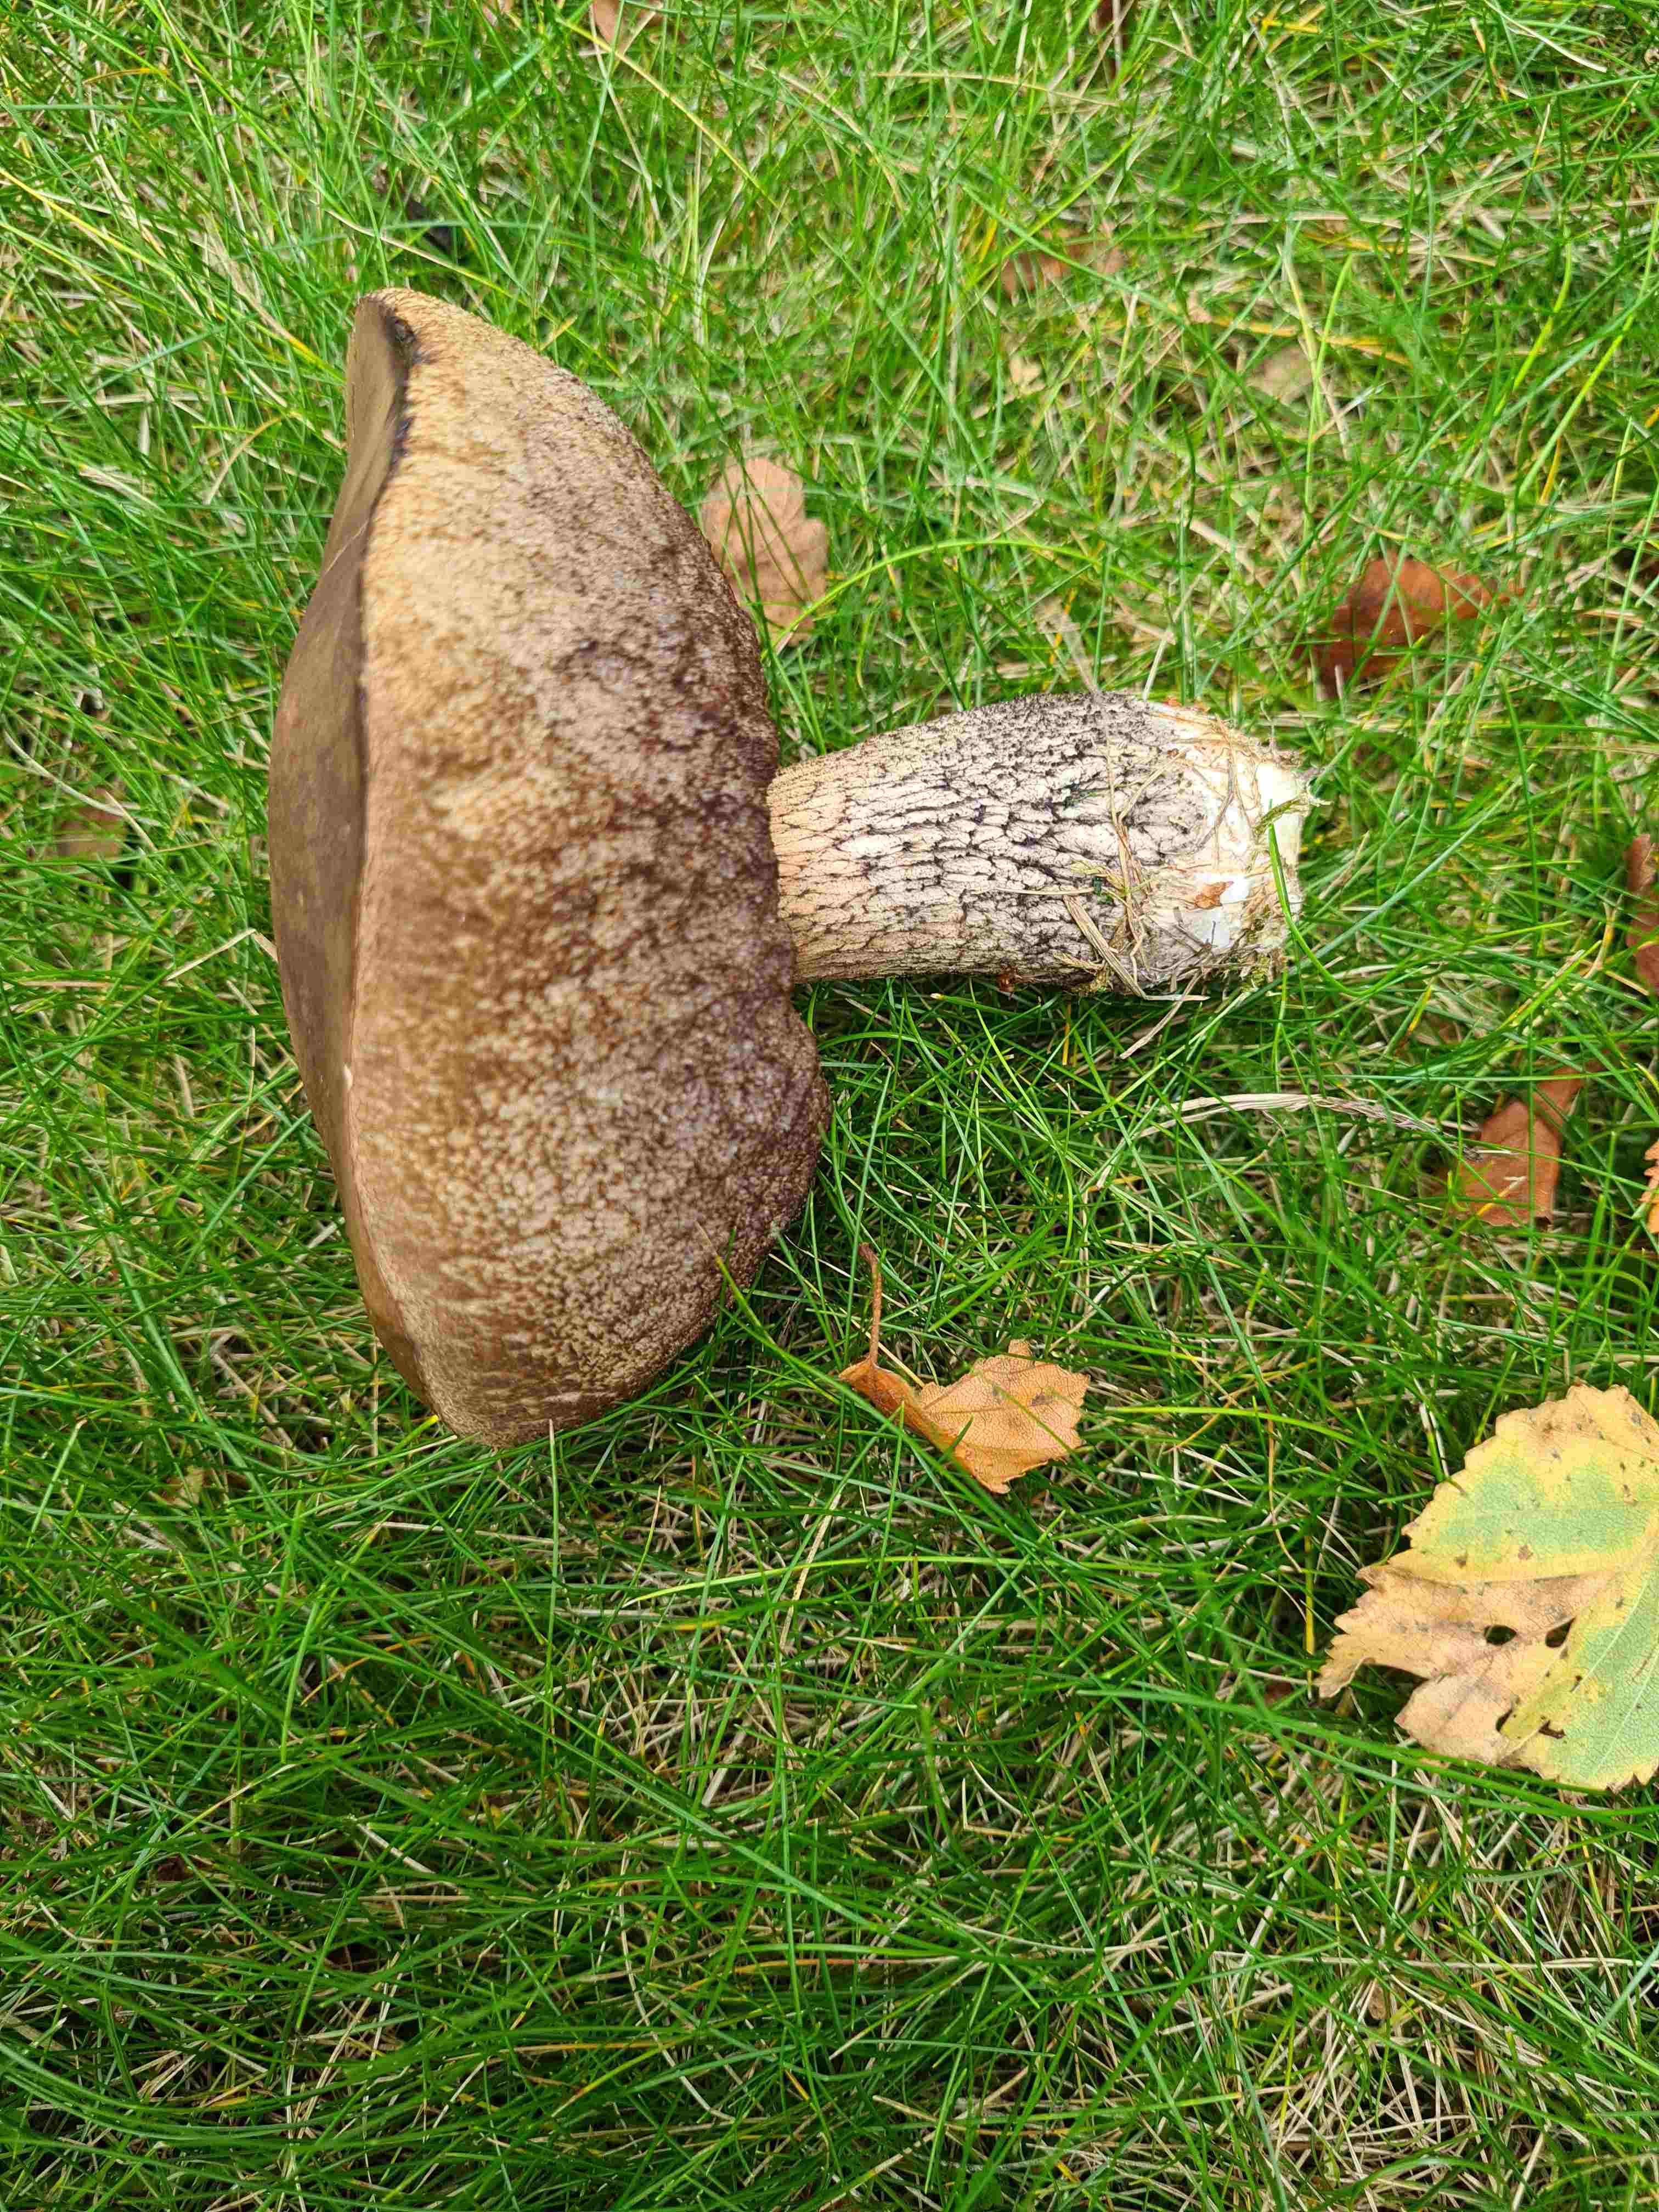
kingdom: Fungi
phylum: Basidiomycota
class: Agaricomycetes
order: Boletales
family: Boletaceae
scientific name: Boletaceae
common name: rørhatfamilien
